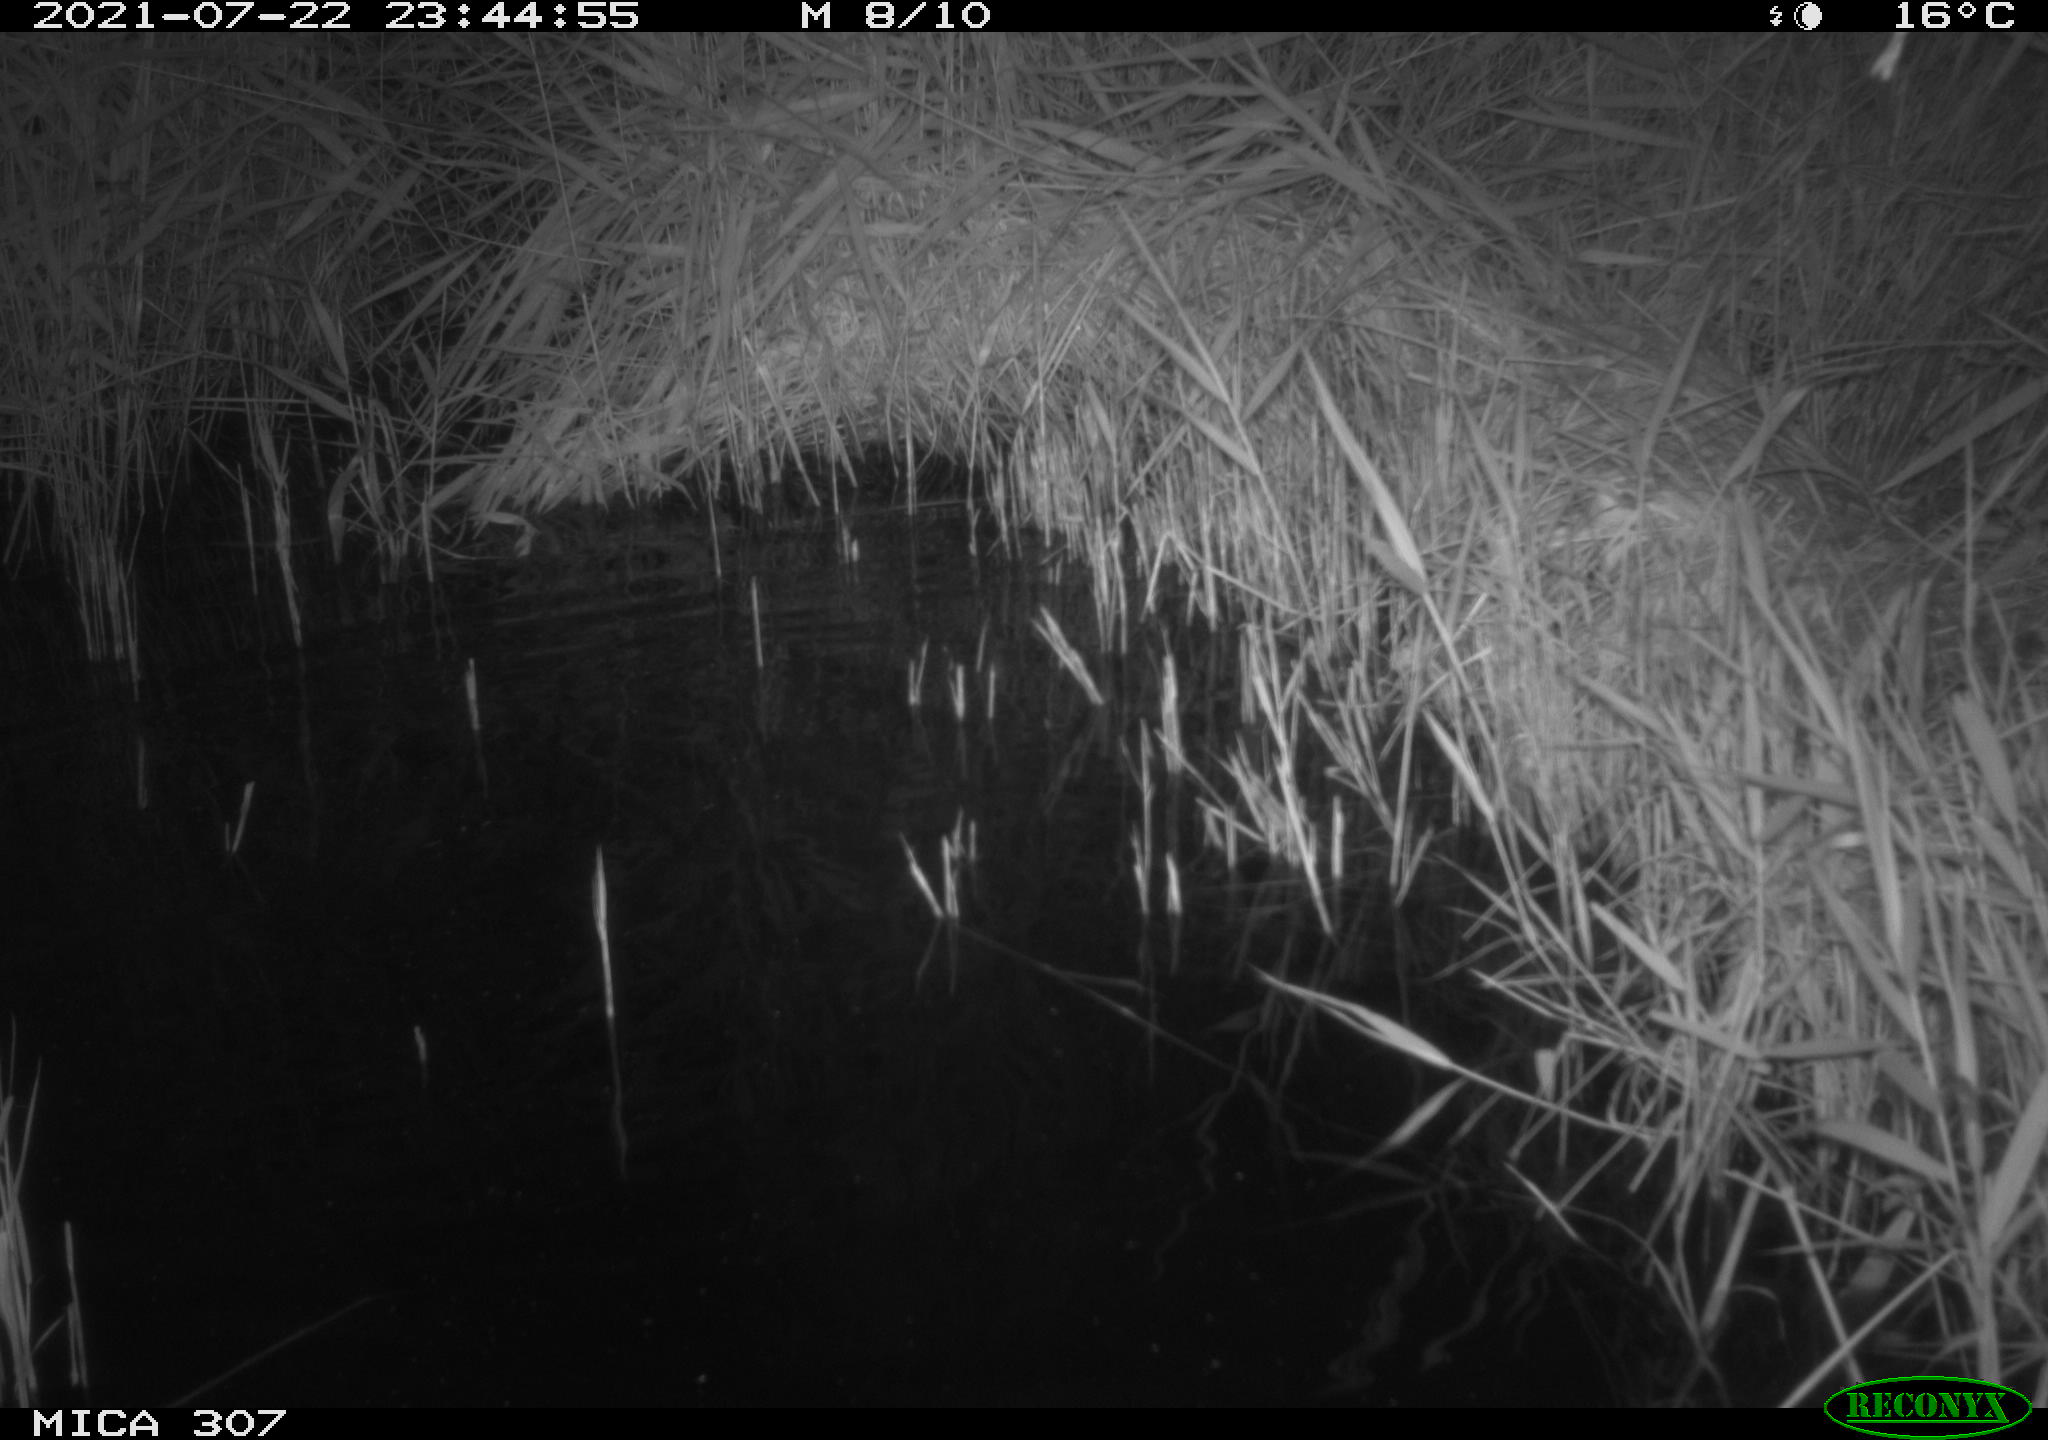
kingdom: Animalia
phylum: Chordata
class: Mammalia
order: Rodentia
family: Muridae
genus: Rattus
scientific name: Rattus norvegicus
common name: Brown rat
